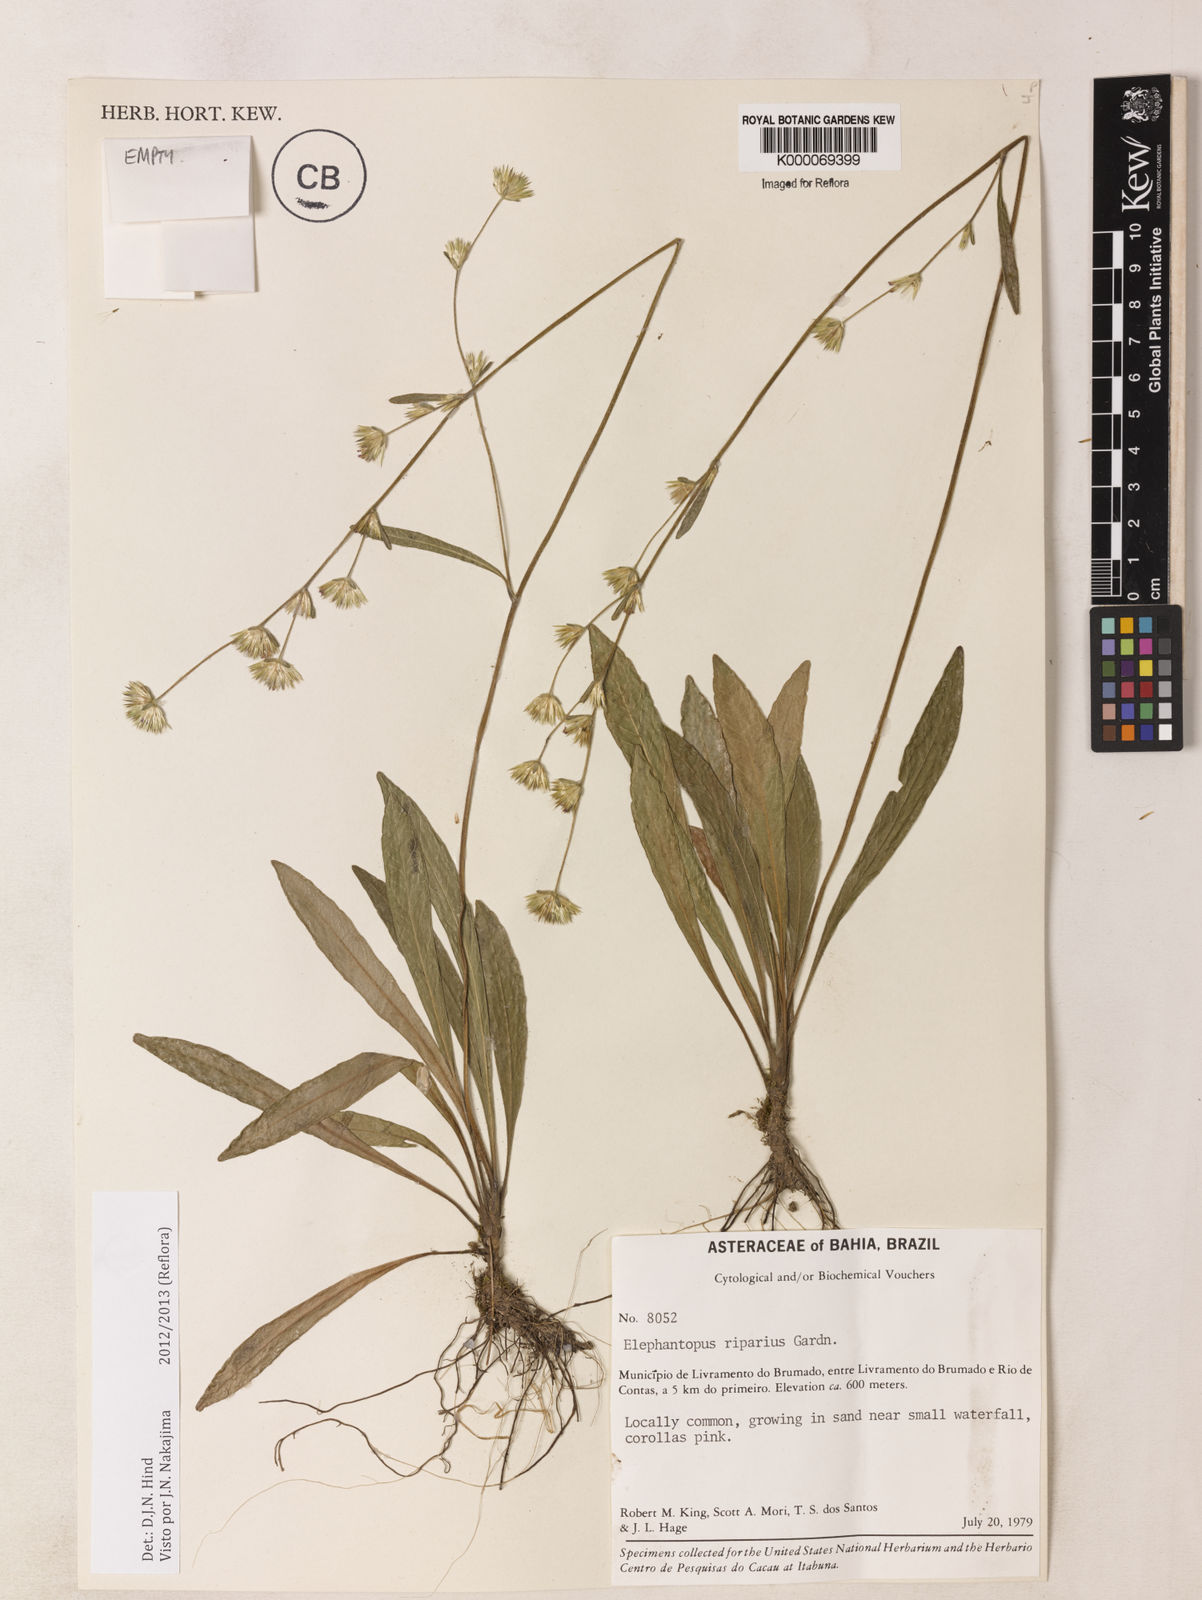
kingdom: Plantae
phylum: Tracheophyta
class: Magnoliopsida
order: Asterales
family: Asteraceae
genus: Elephantopus
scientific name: Elephantopus riparius
